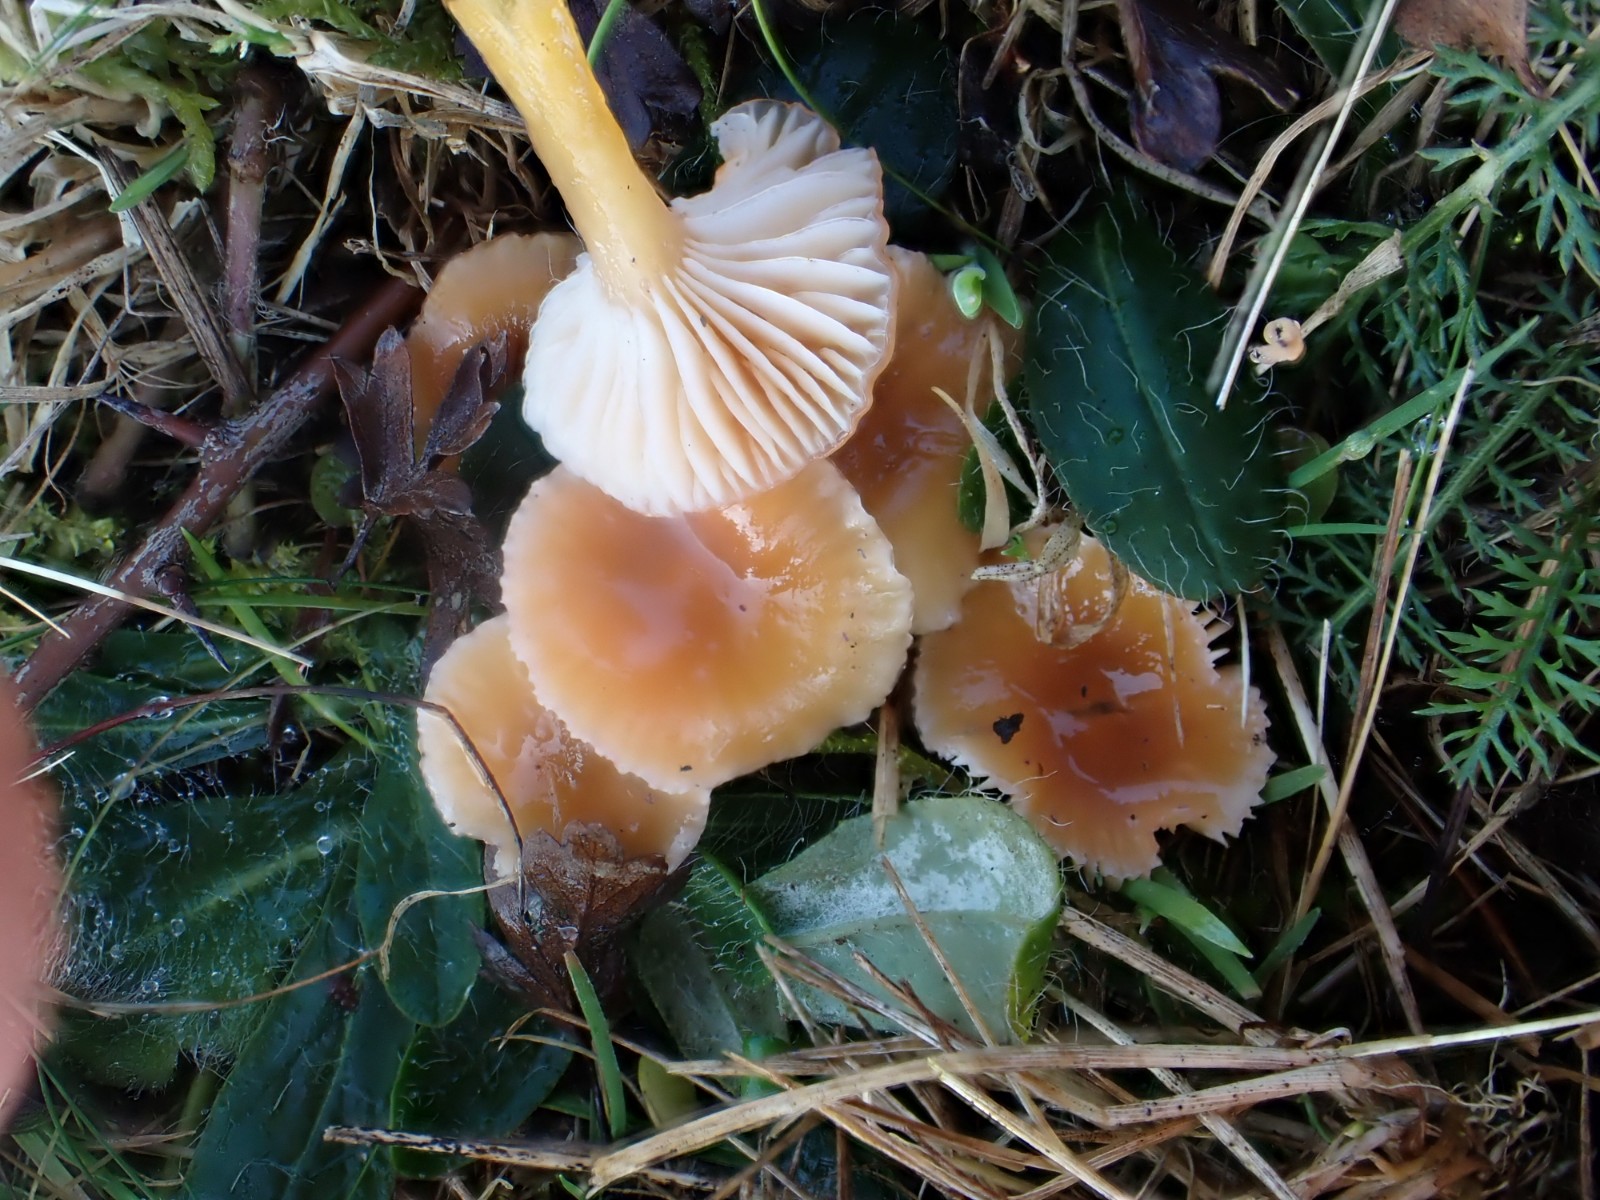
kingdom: Fungi
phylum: Basidiomycota
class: Agaricomycetes
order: Agaricales
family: Hygrophoraceae
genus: Gliophorus
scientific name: Gliophorus laetus
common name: brusk-vokshat
